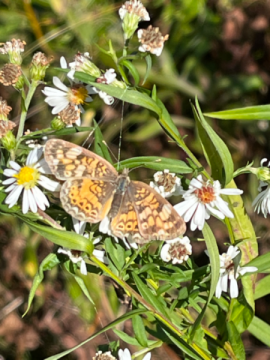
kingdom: Animalia
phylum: Arthropoda
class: Insecta
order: Lepidoptera
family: Nymphalidae
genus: Phyciodes
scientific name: Phyciodes
